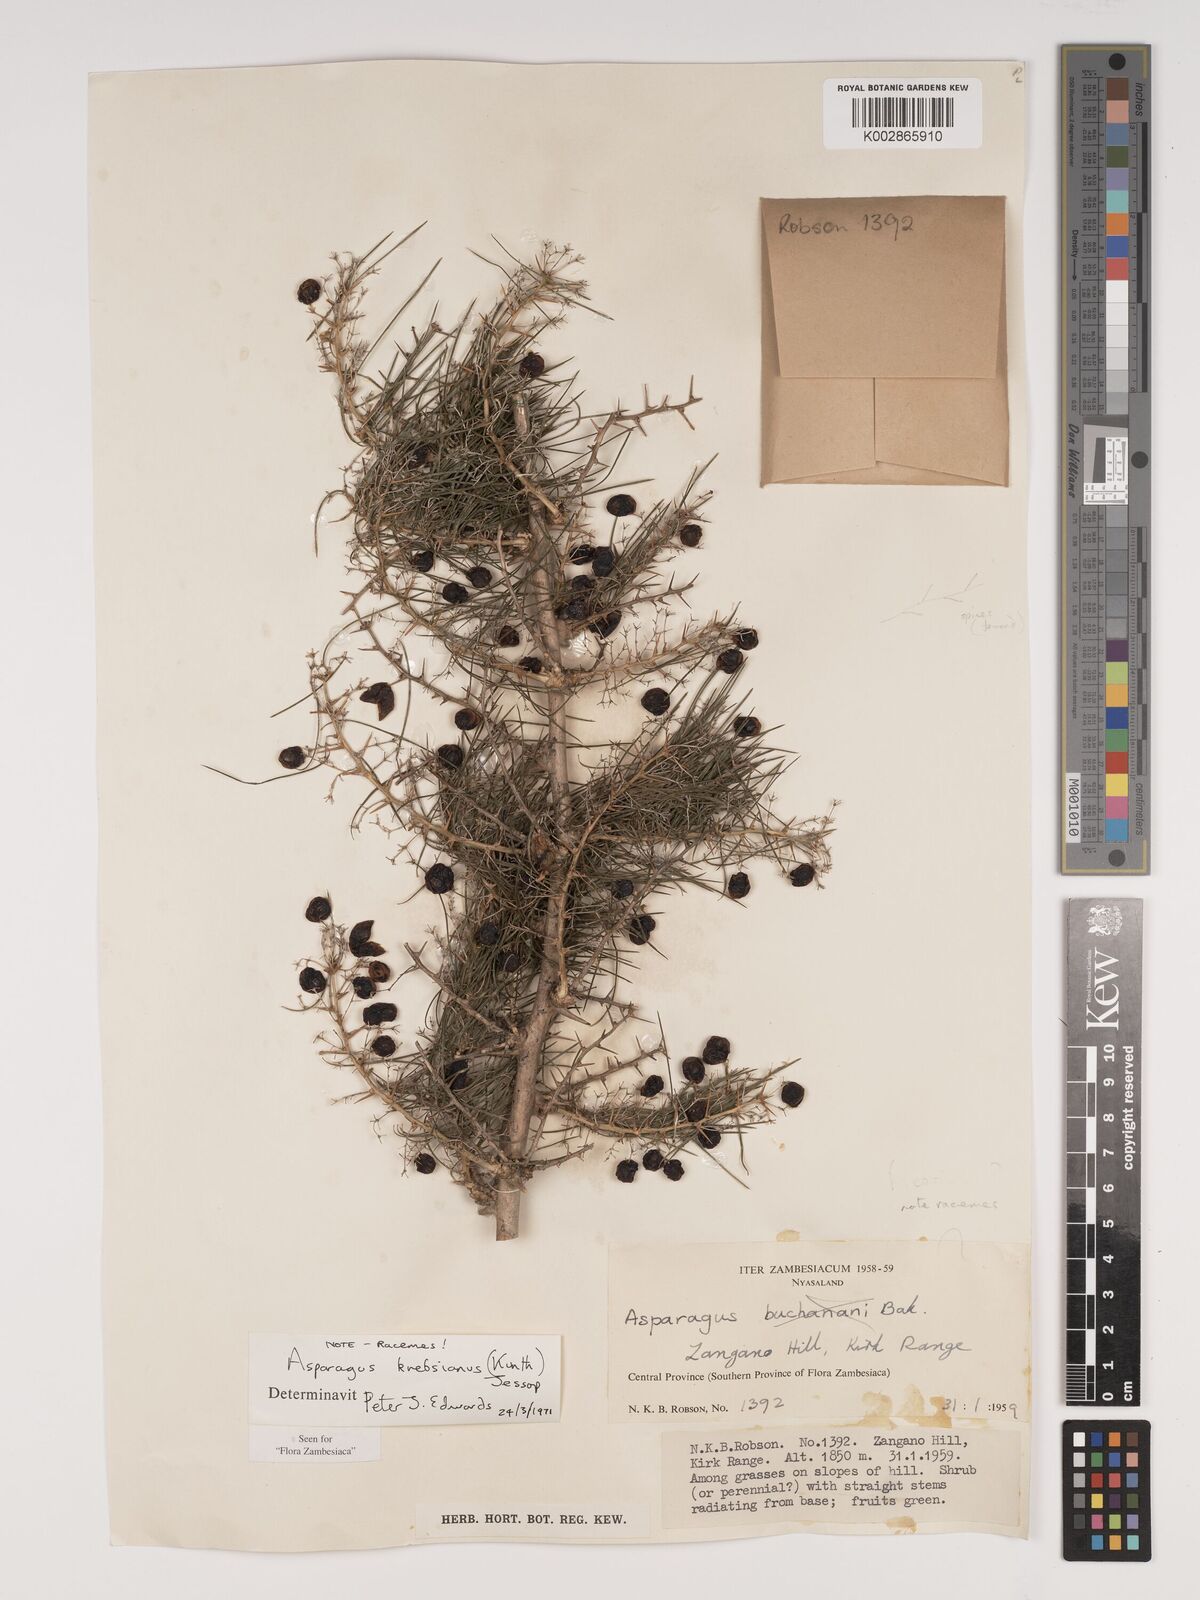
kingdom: Plantae
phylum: Tracheophyta
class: Liliopsida
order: Asparagales
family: Asparagaceae
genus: Asparagus
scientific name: Asparagus krebsianus
